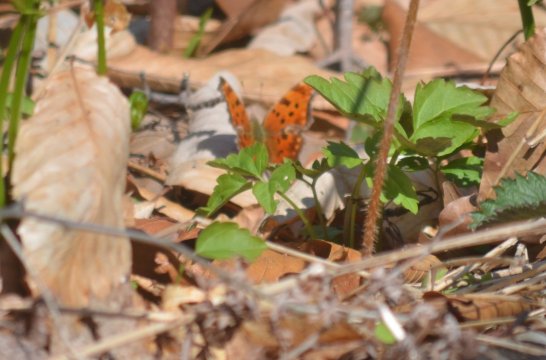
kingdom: Animalia
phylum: Arthropoda
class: Insecta
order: Lepidoptera
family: Nymphalidae
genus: Polygonia
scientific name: Polygonia comma
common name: Eastern Comma
